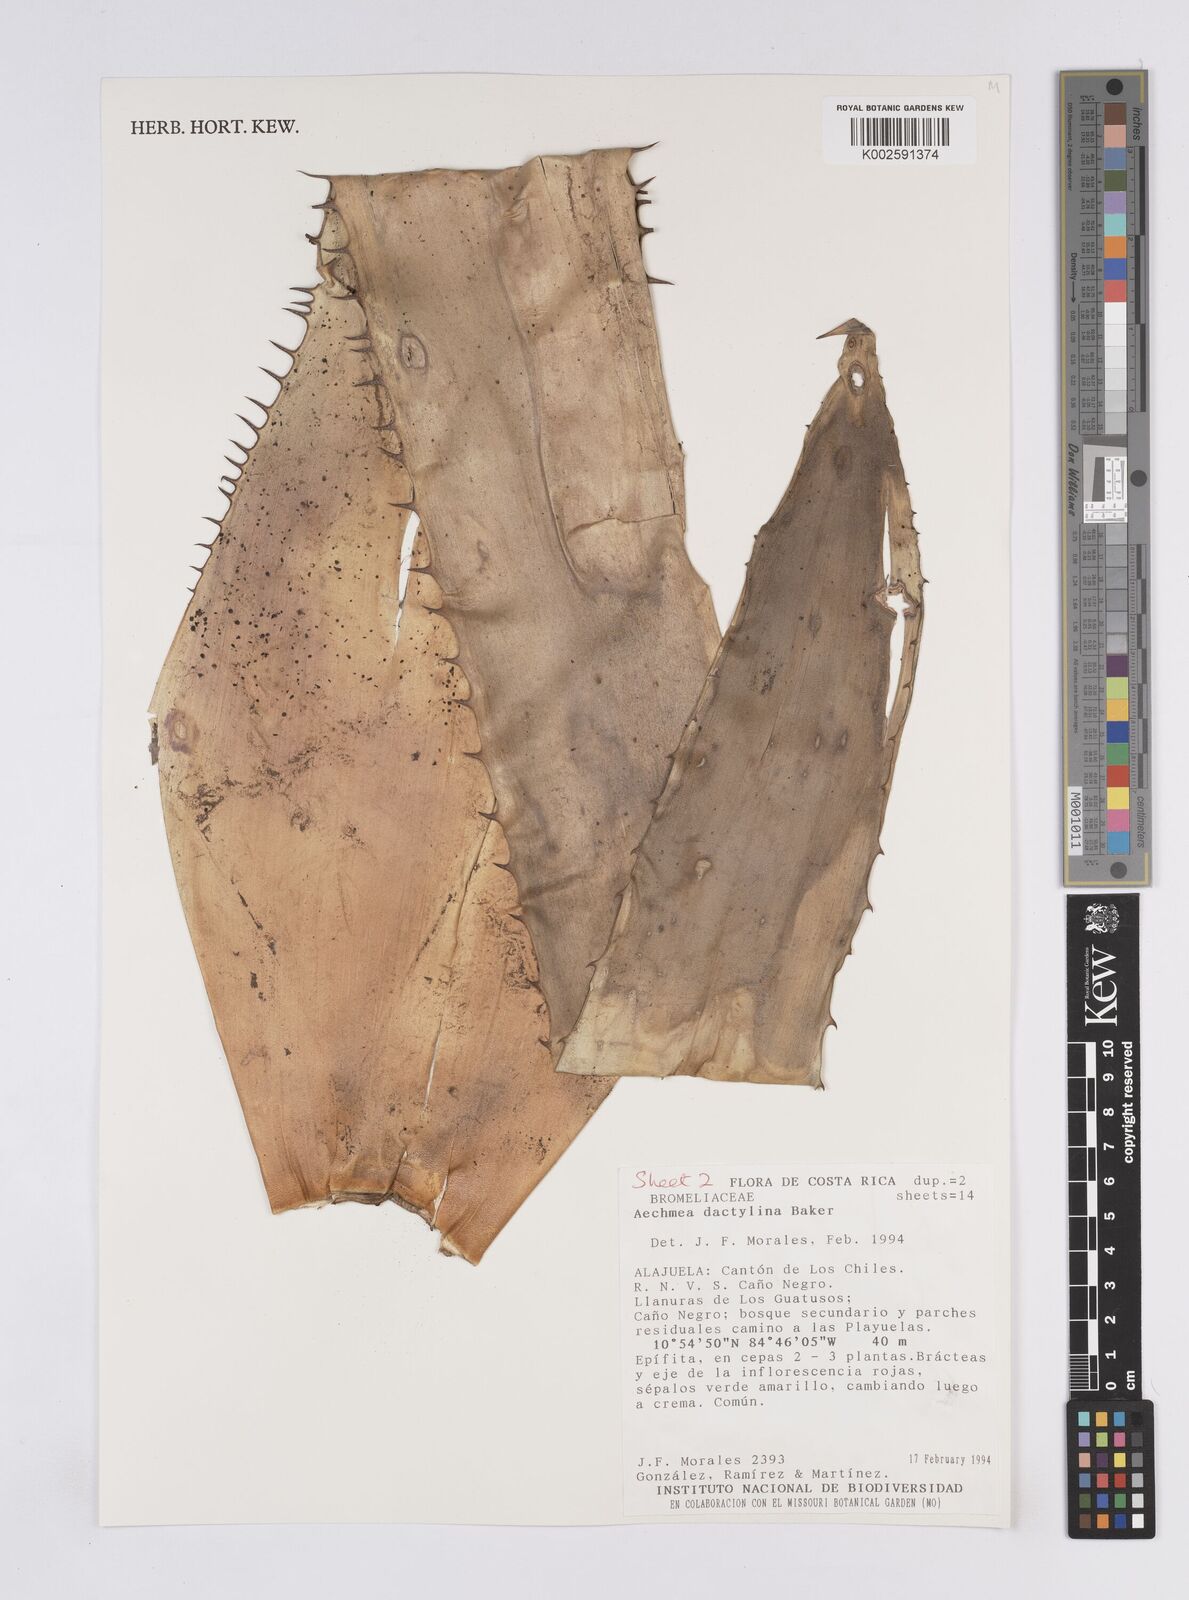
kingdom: Plantae
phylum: Tracheophyta
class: Liliopsida
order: Poales
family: Bromeliaceae
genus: Aechmea
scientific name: Aechmea dactylina
